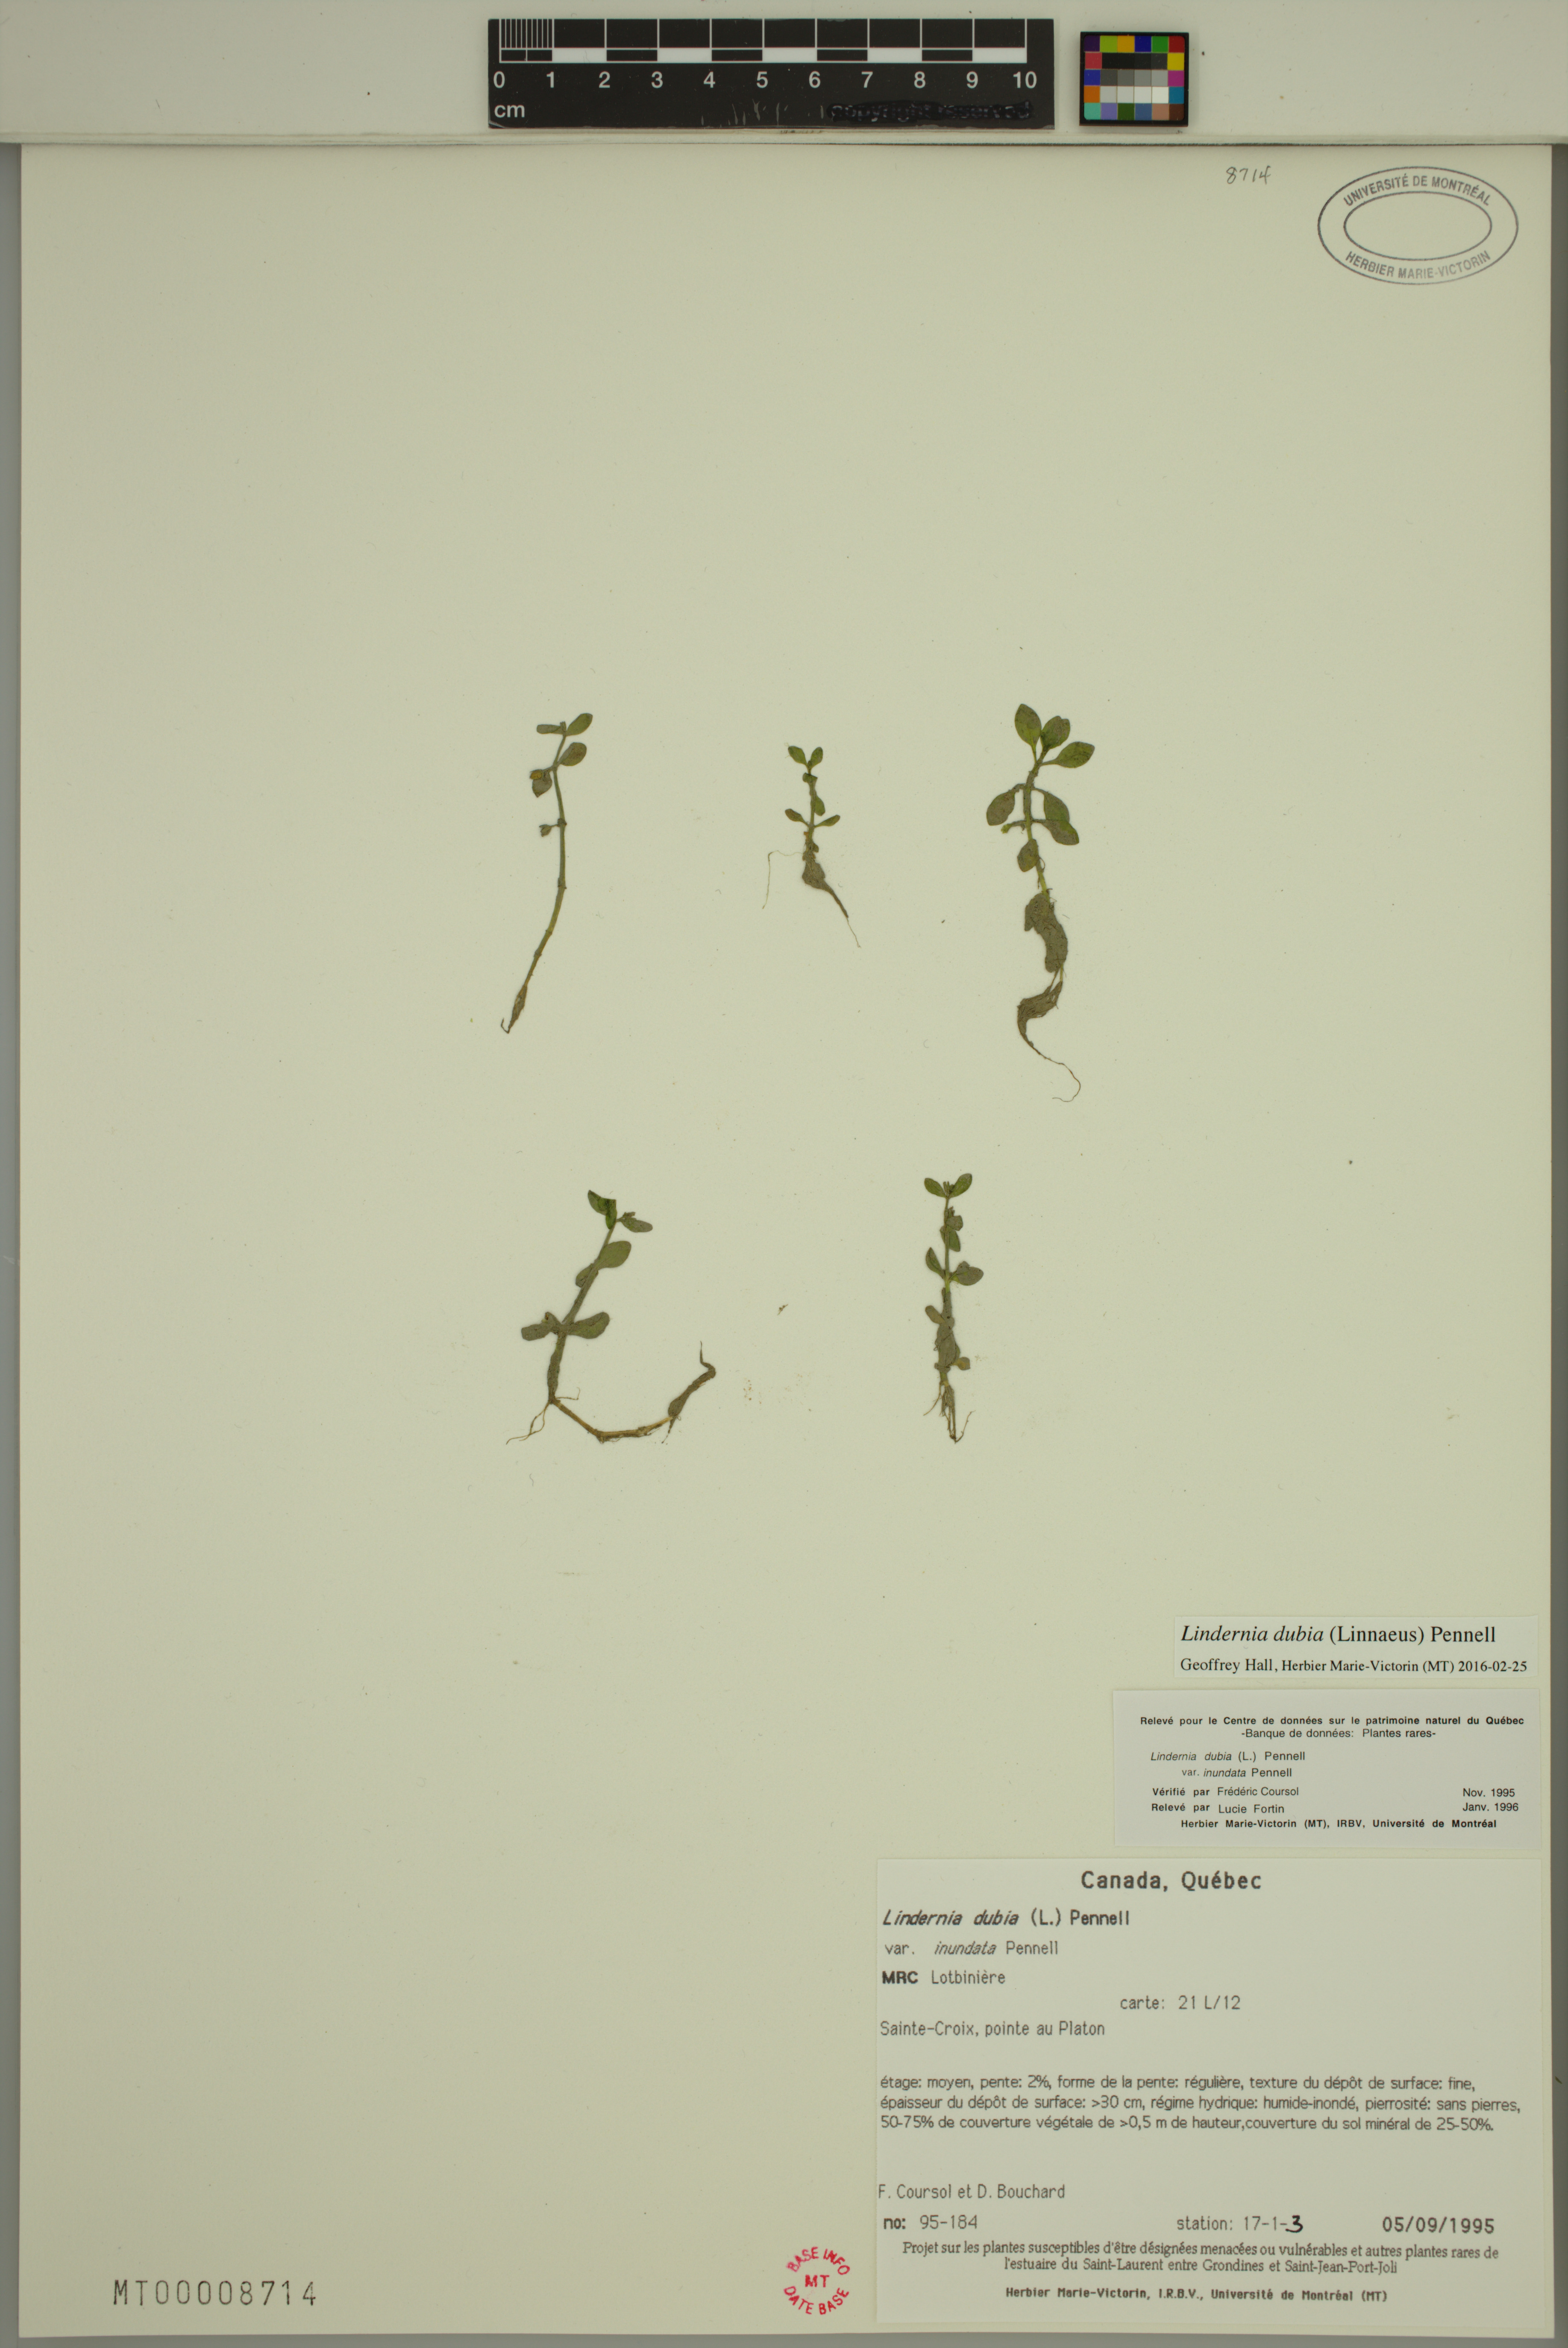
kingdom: Plantae
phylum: Tracheophyta
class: Magnoliopsida
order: Lamiales
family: Linderniaceae
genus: Lindernia
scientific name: Lindernia dubia
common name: Annual false pimpernel
